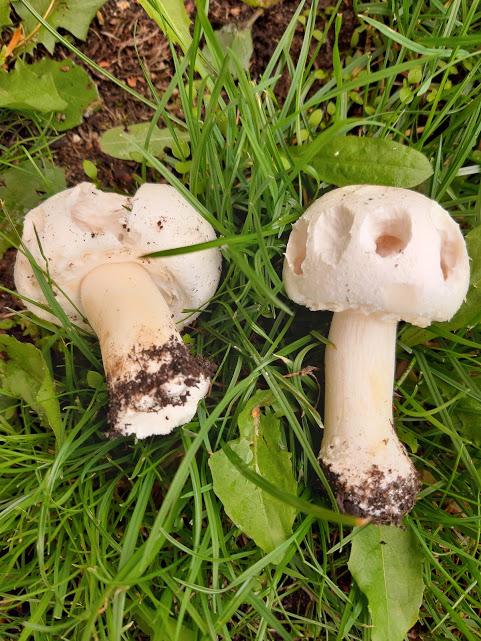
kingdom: Fungi
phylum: Basidiomycota
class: Agaricomycetes
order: Agaricales
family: Agaricaceae
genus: Agaricus
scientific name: Agaricus arvensis
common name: ager-champignon
